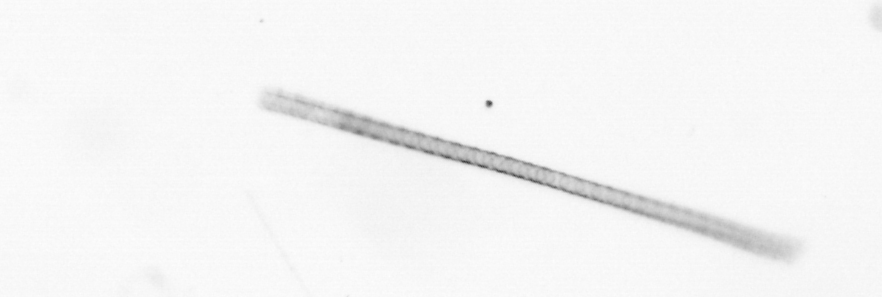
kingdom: Chromista
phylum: Ochrophyta
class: Bacillariophyceae
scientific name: Bacillariophyceae
